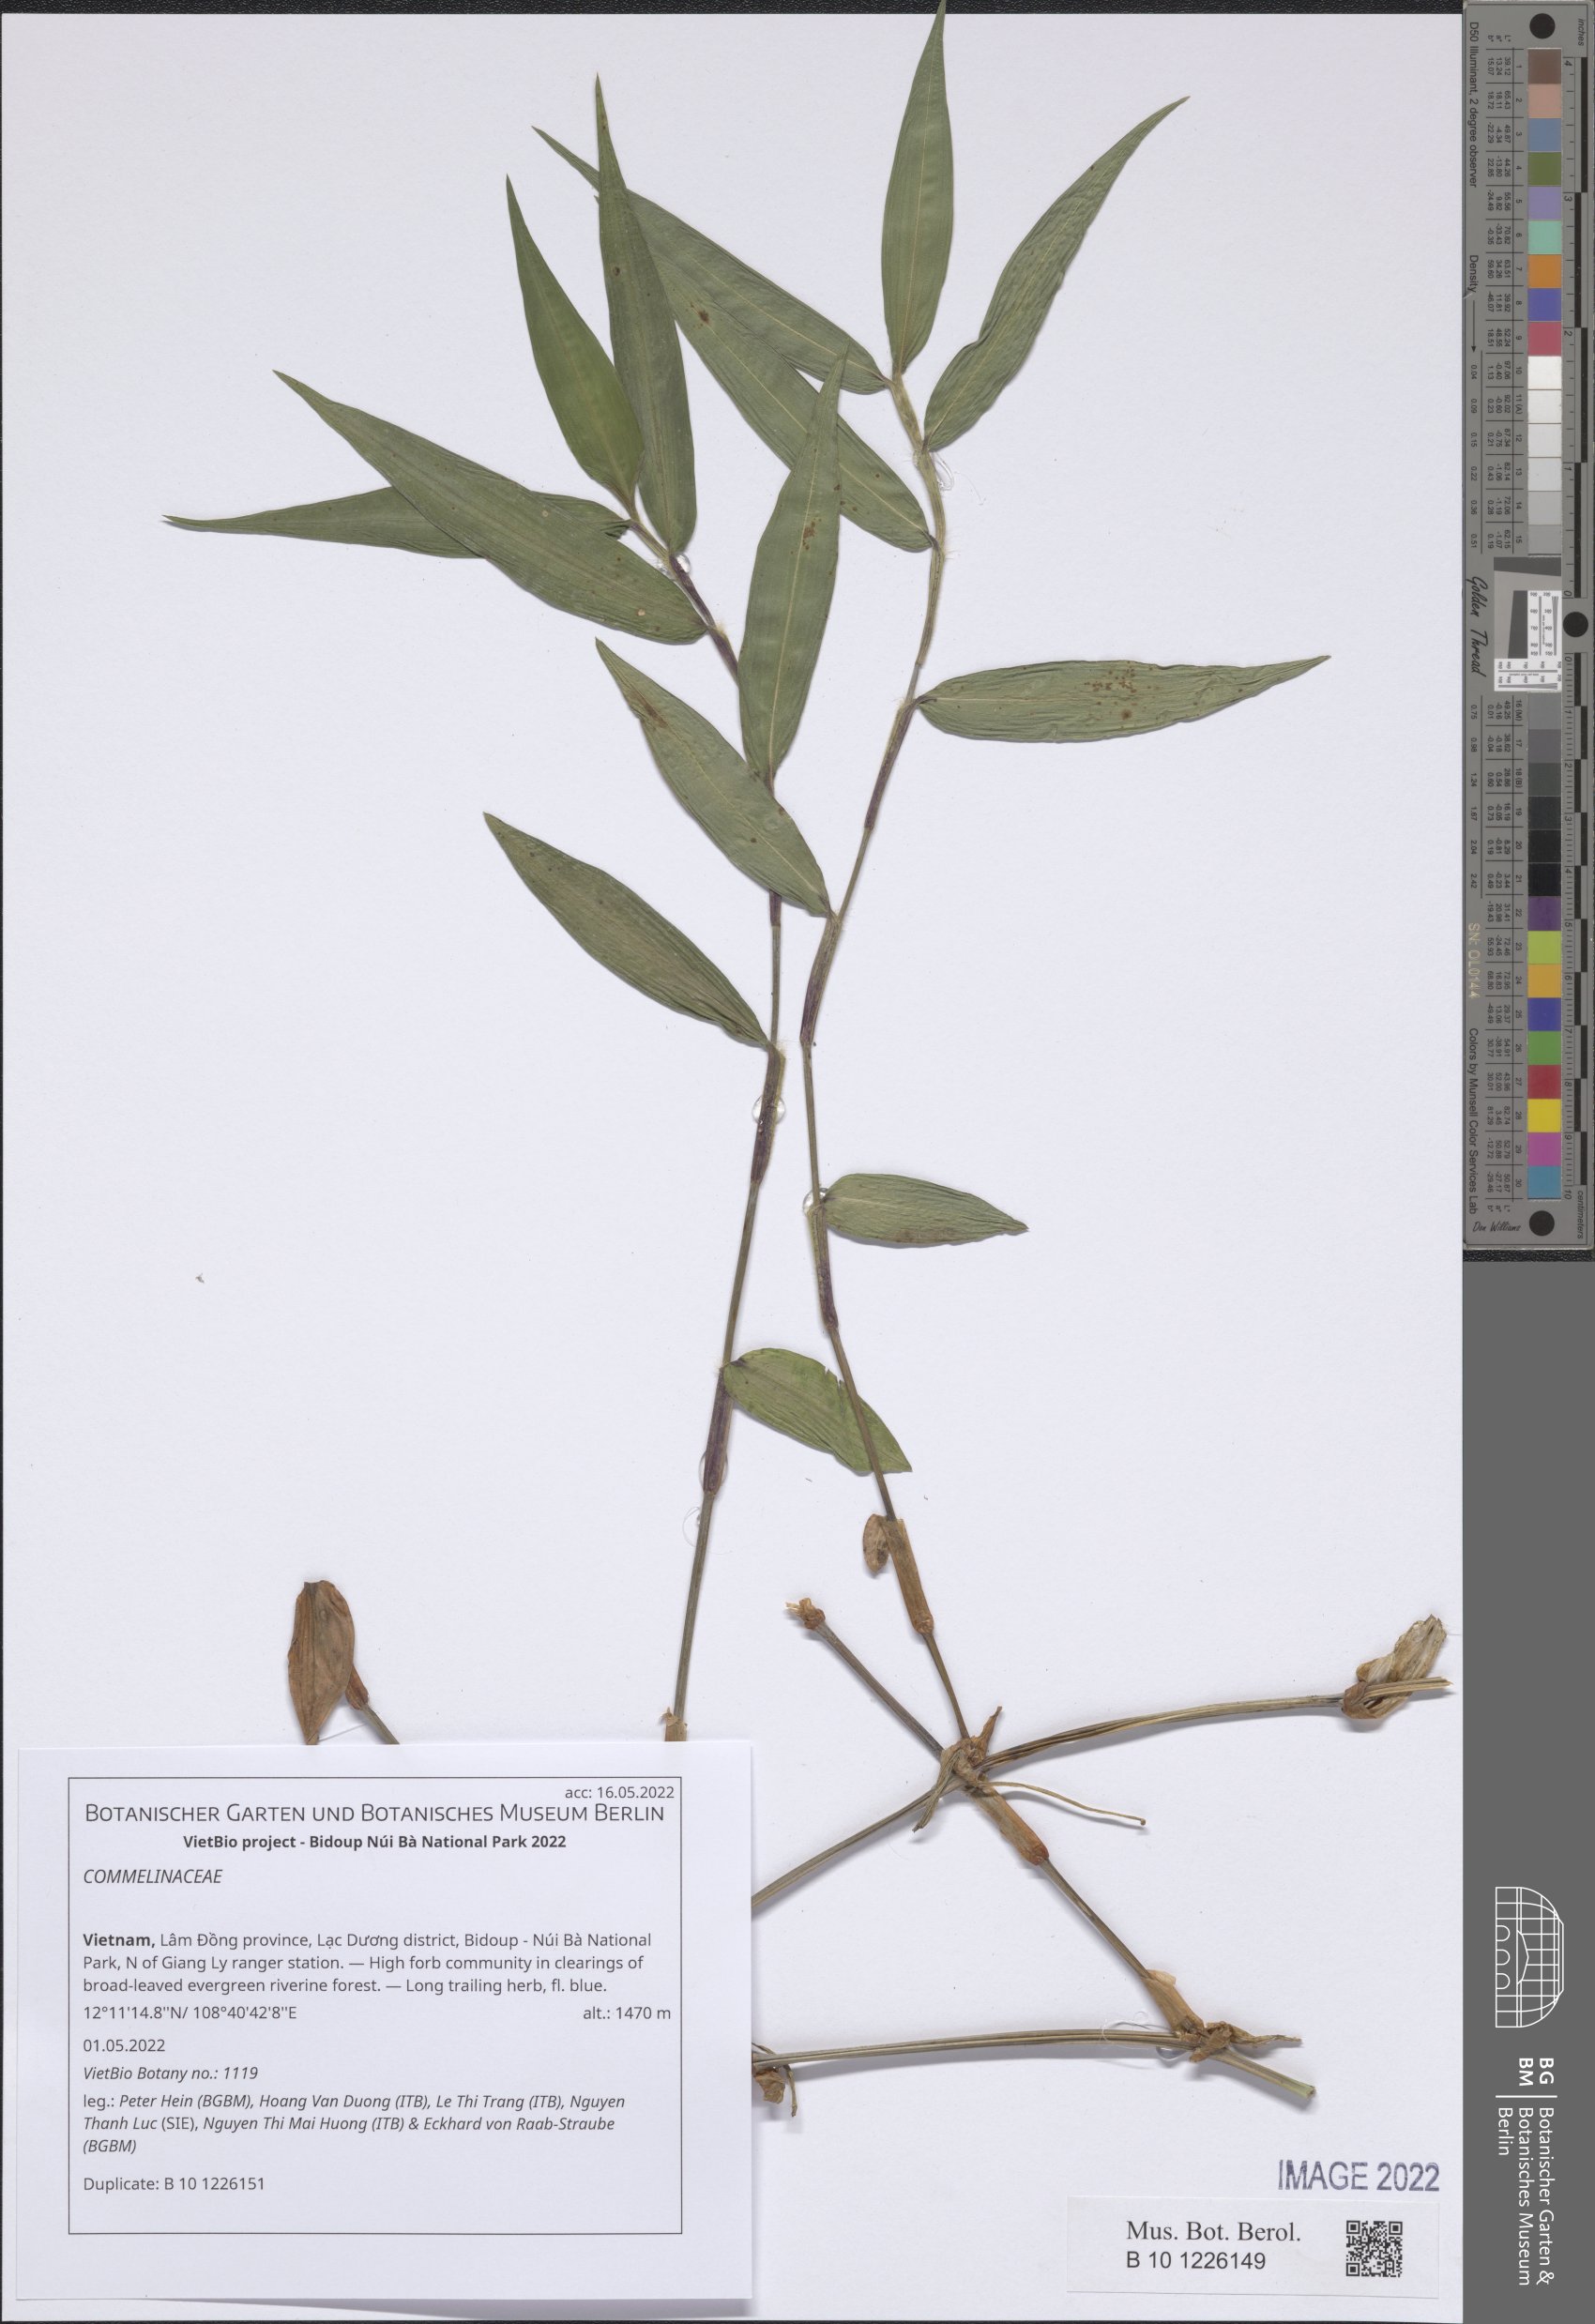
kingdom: Plantae
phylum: Tracheophyta
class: Liliopsida
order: Commelinales
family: Commelinaceae
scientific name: Commelinaceae
